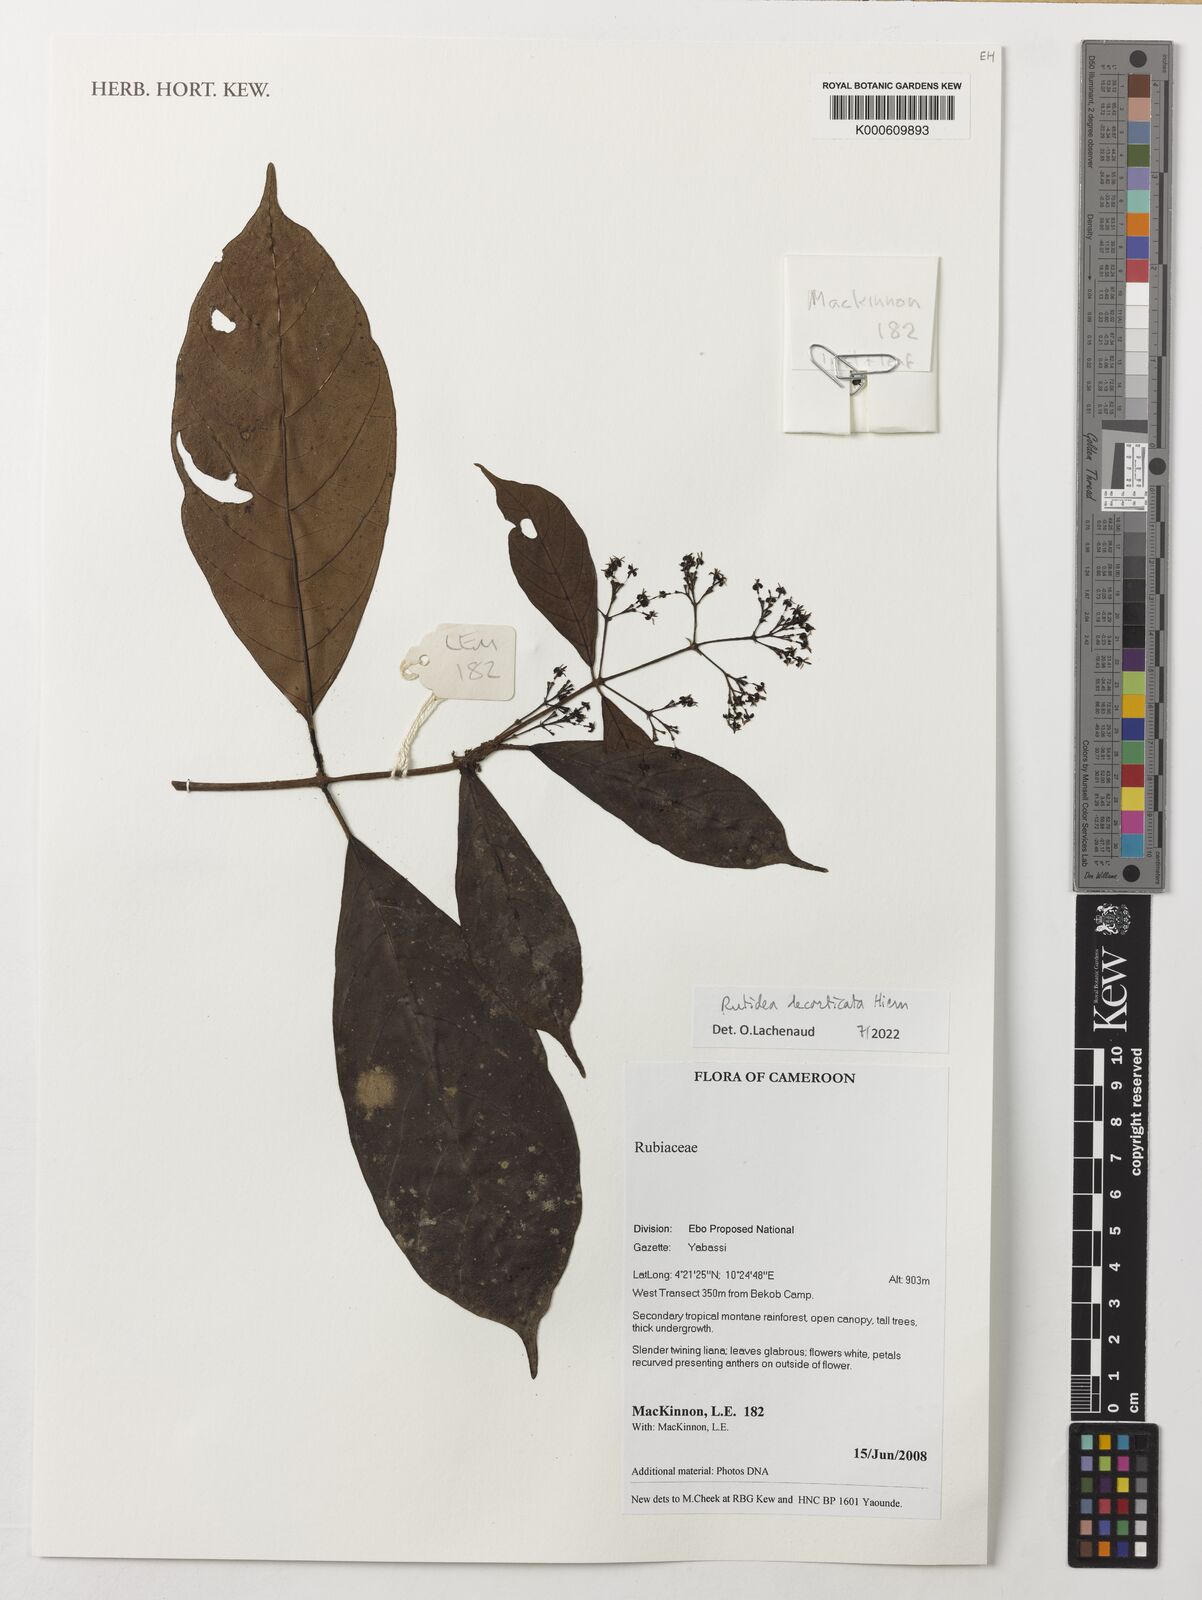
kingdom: Plantae
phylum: Tracheophyta
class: Magnoliopsida
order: Gentianales
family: Rubiaceae
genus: Rutidea
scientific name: Rutidea decorticata
